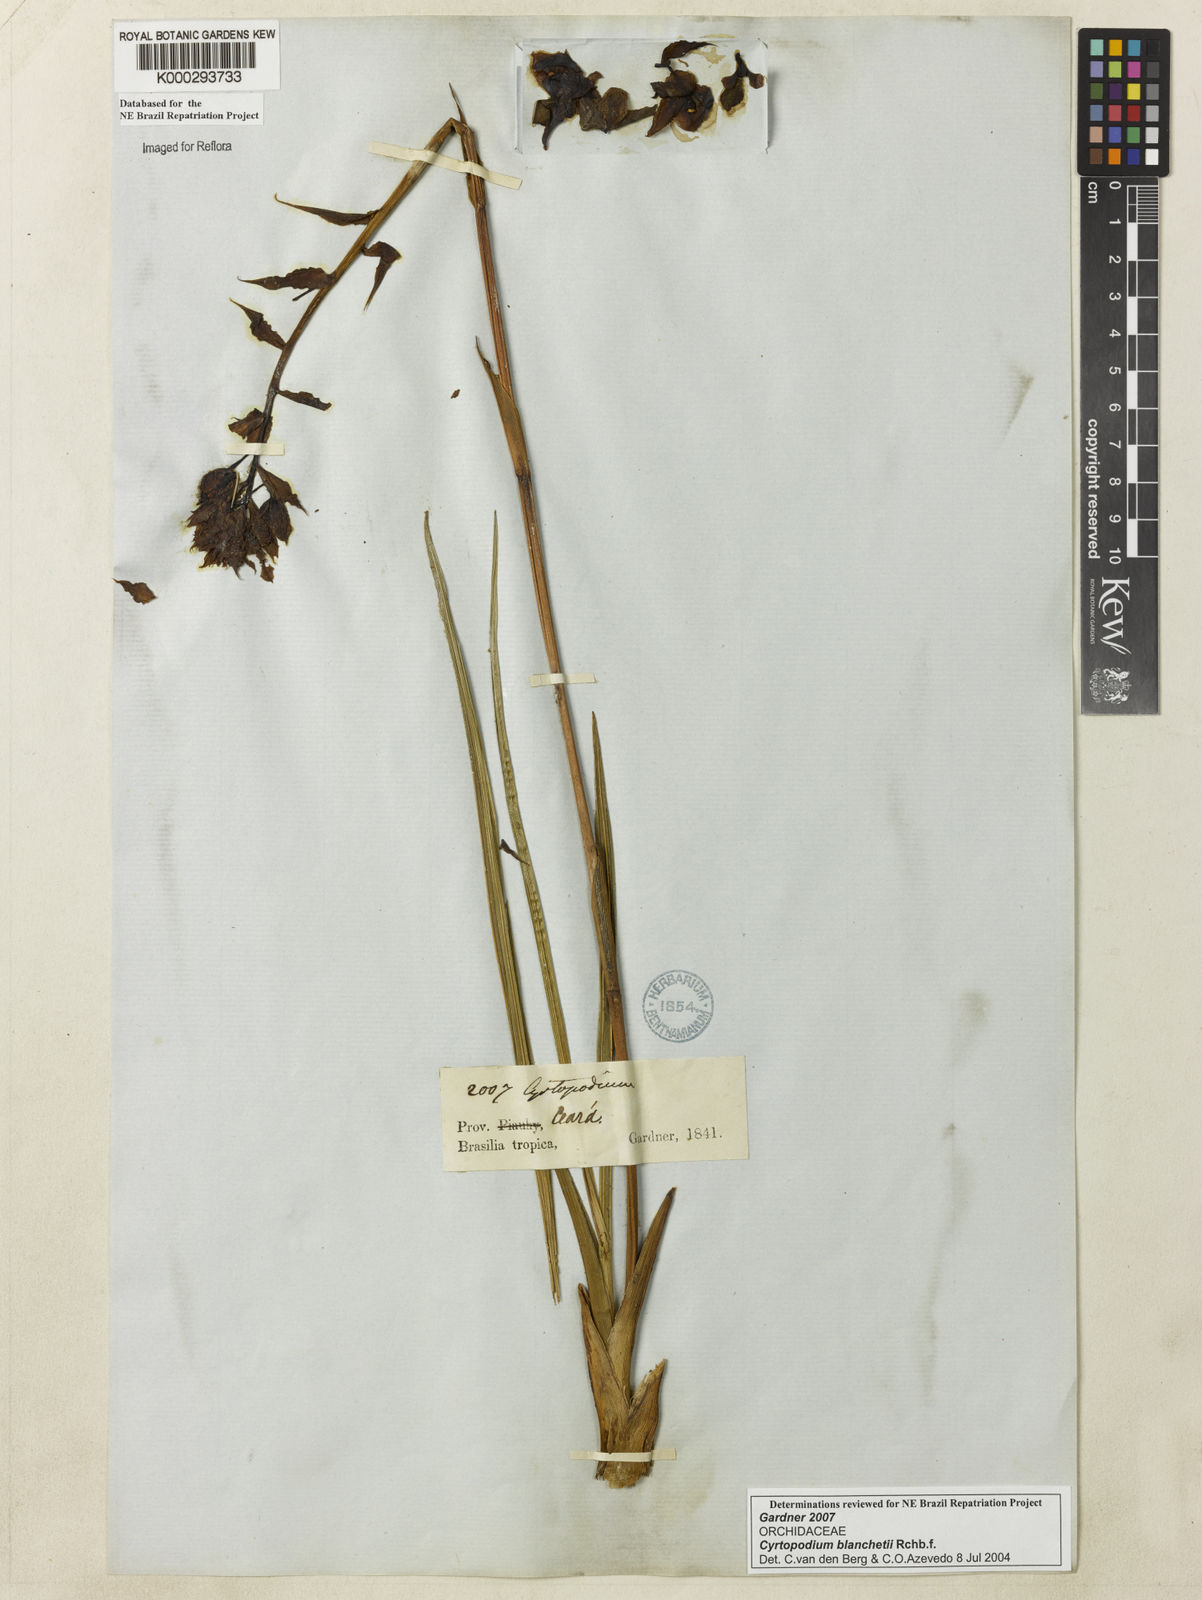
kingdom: Plantae
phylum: Tracheophyta
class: Liliopsida
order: Asparagales
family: Orchidaceae
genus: Cyrtopodium
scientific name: Cyrtopodium blanchetii
